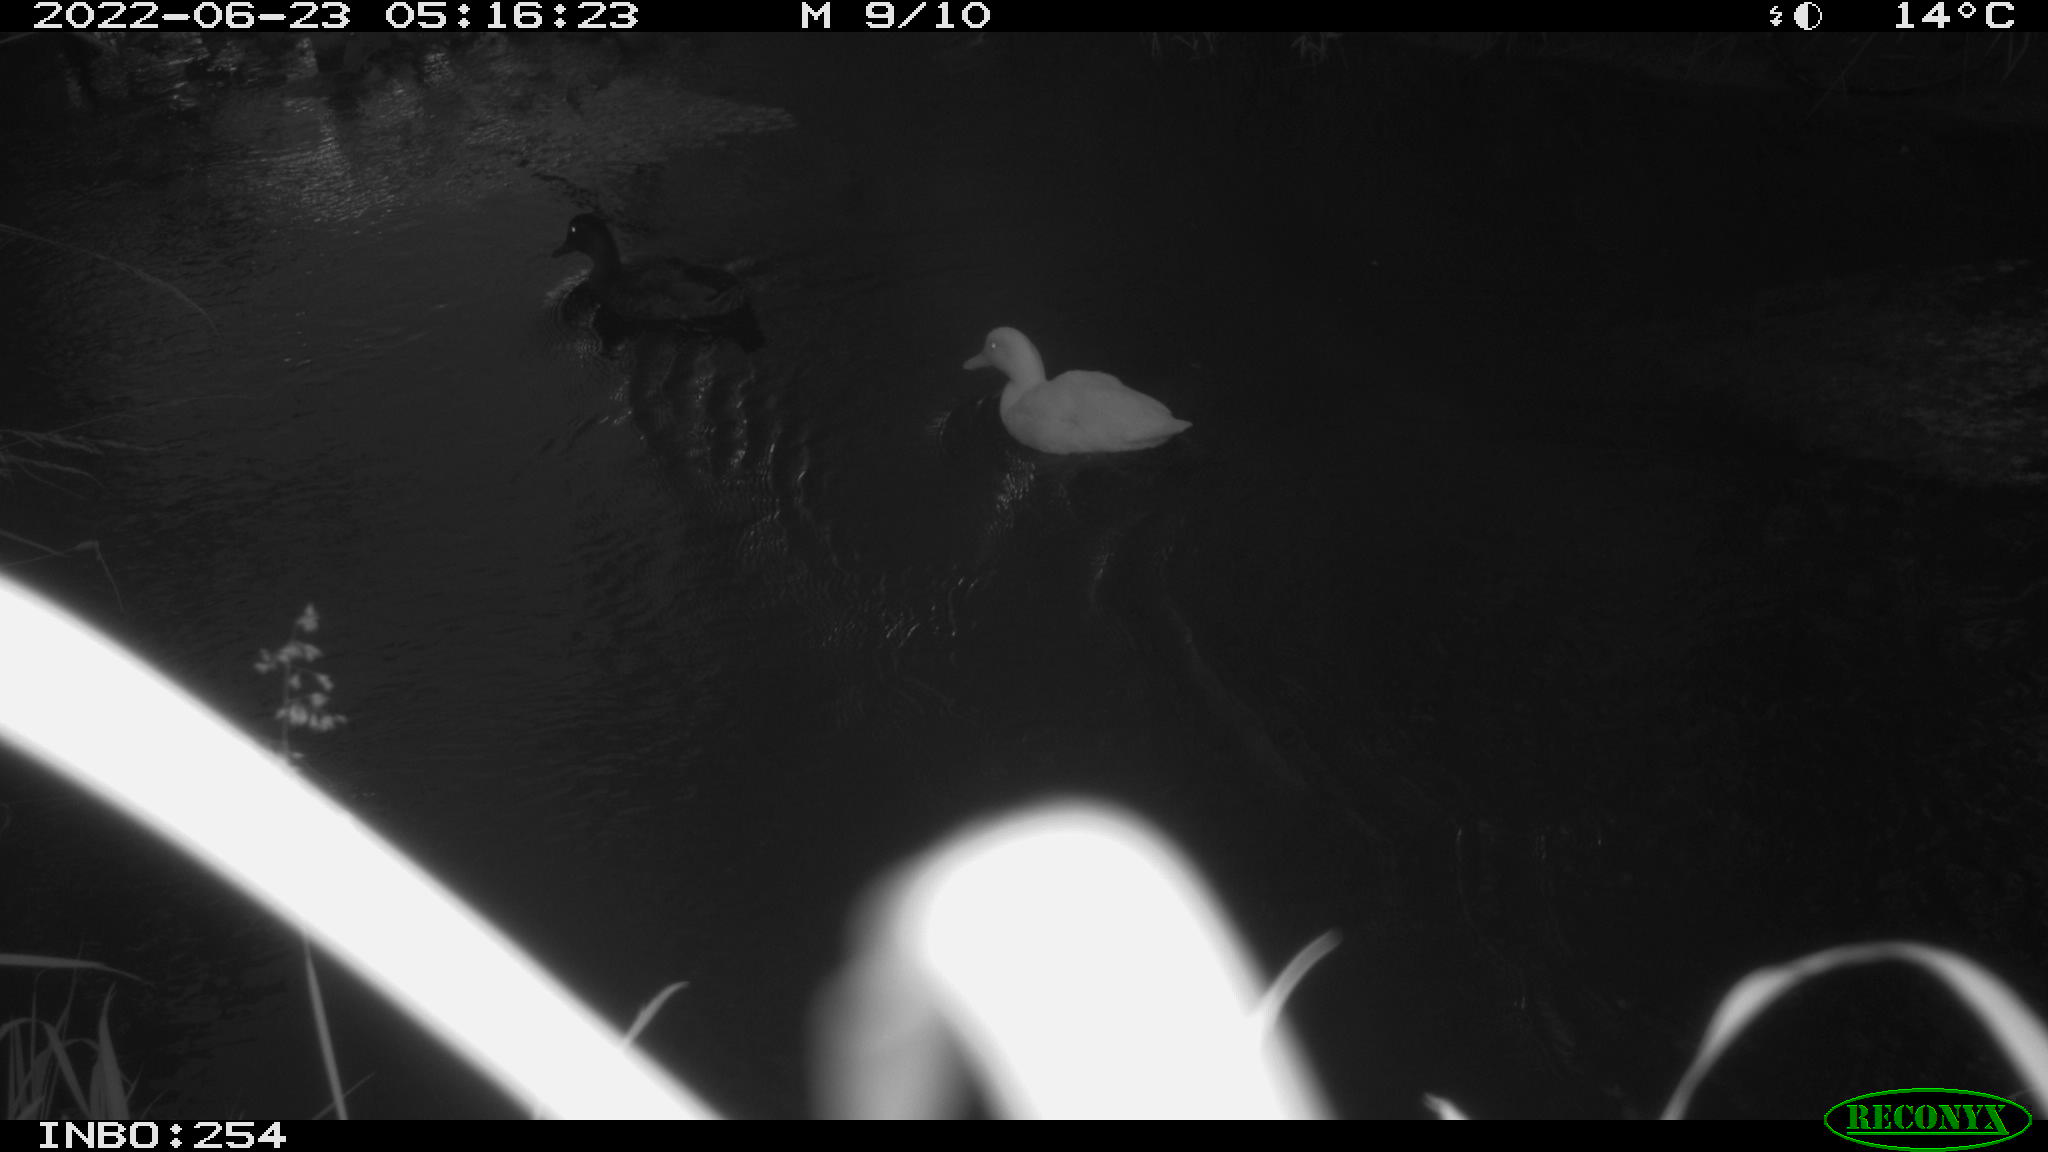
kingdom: Animalia
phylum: Chordata
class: Aves
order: Anseriformes
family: Anatidae
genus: Anas
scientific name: Anas platyrhynchos
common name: Mallard
